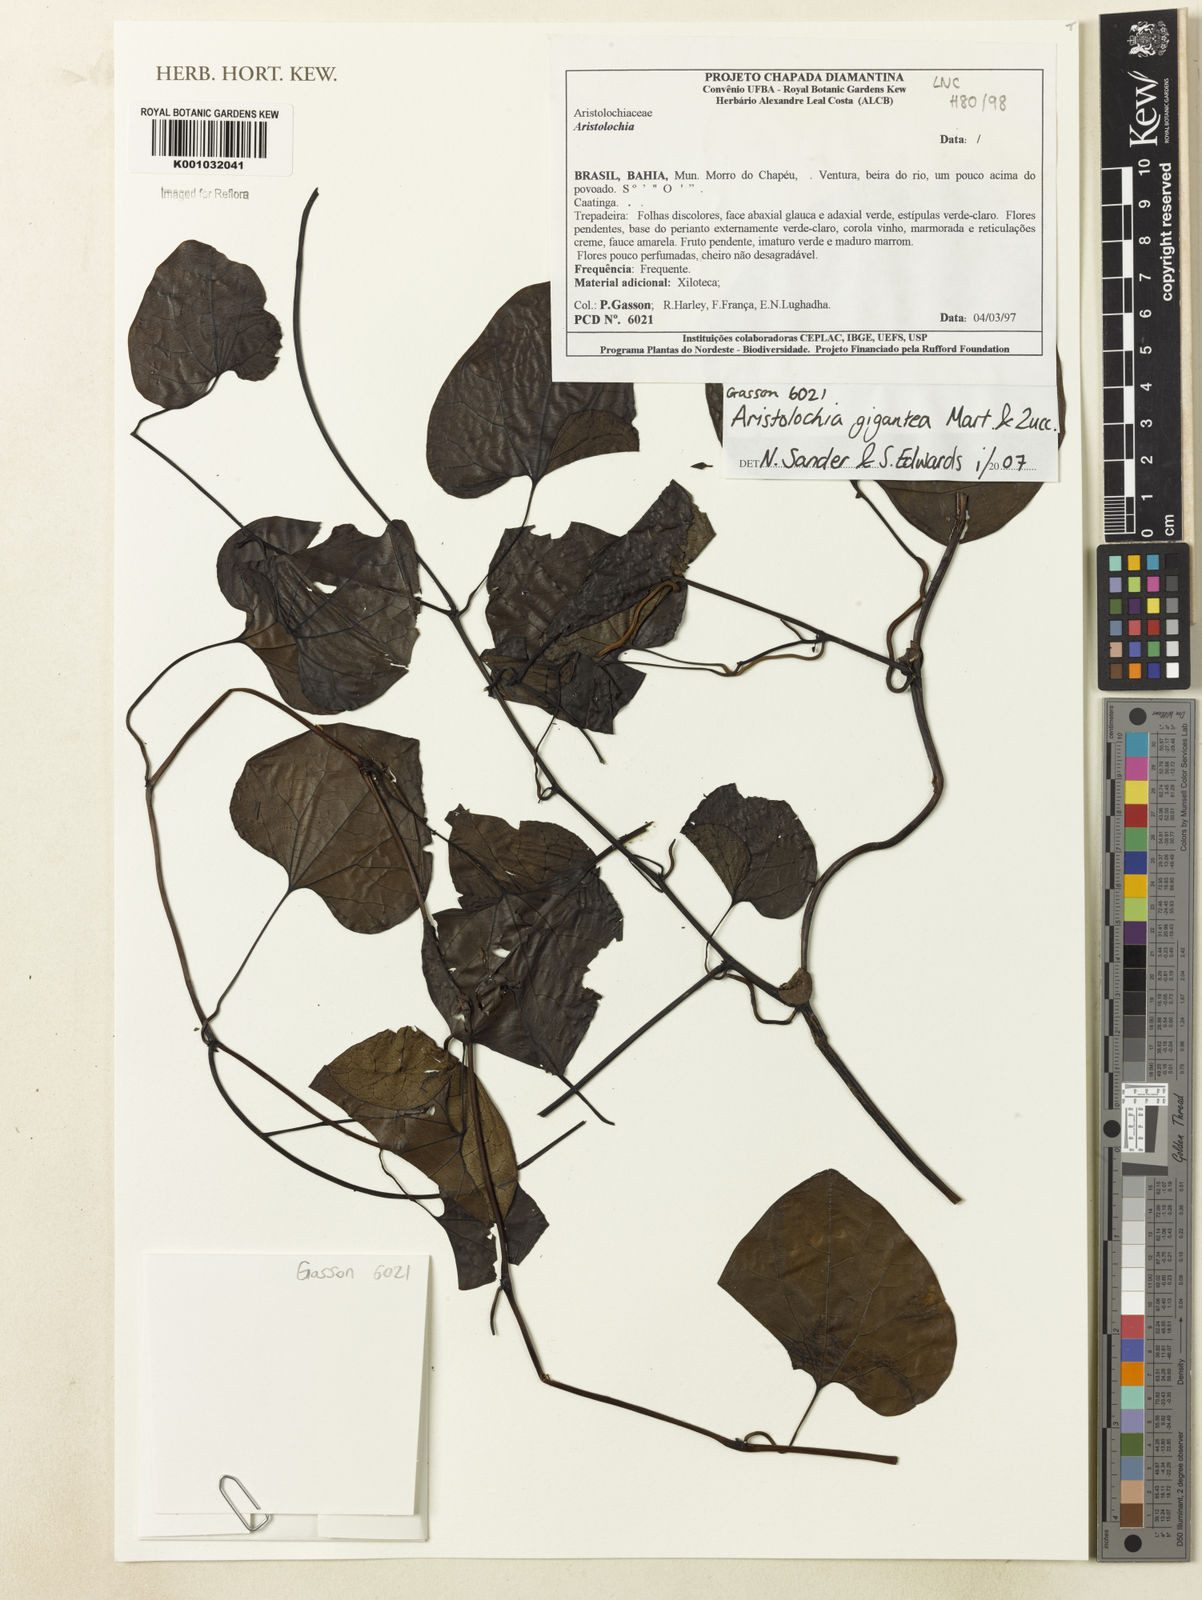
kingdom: Plantae
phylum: Tracheophyta
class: Magnoliopsida
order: Piperales
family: Aristolochiaceae
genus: Aristolochia
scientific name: Aristolochia gigantea
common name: Duckflower
